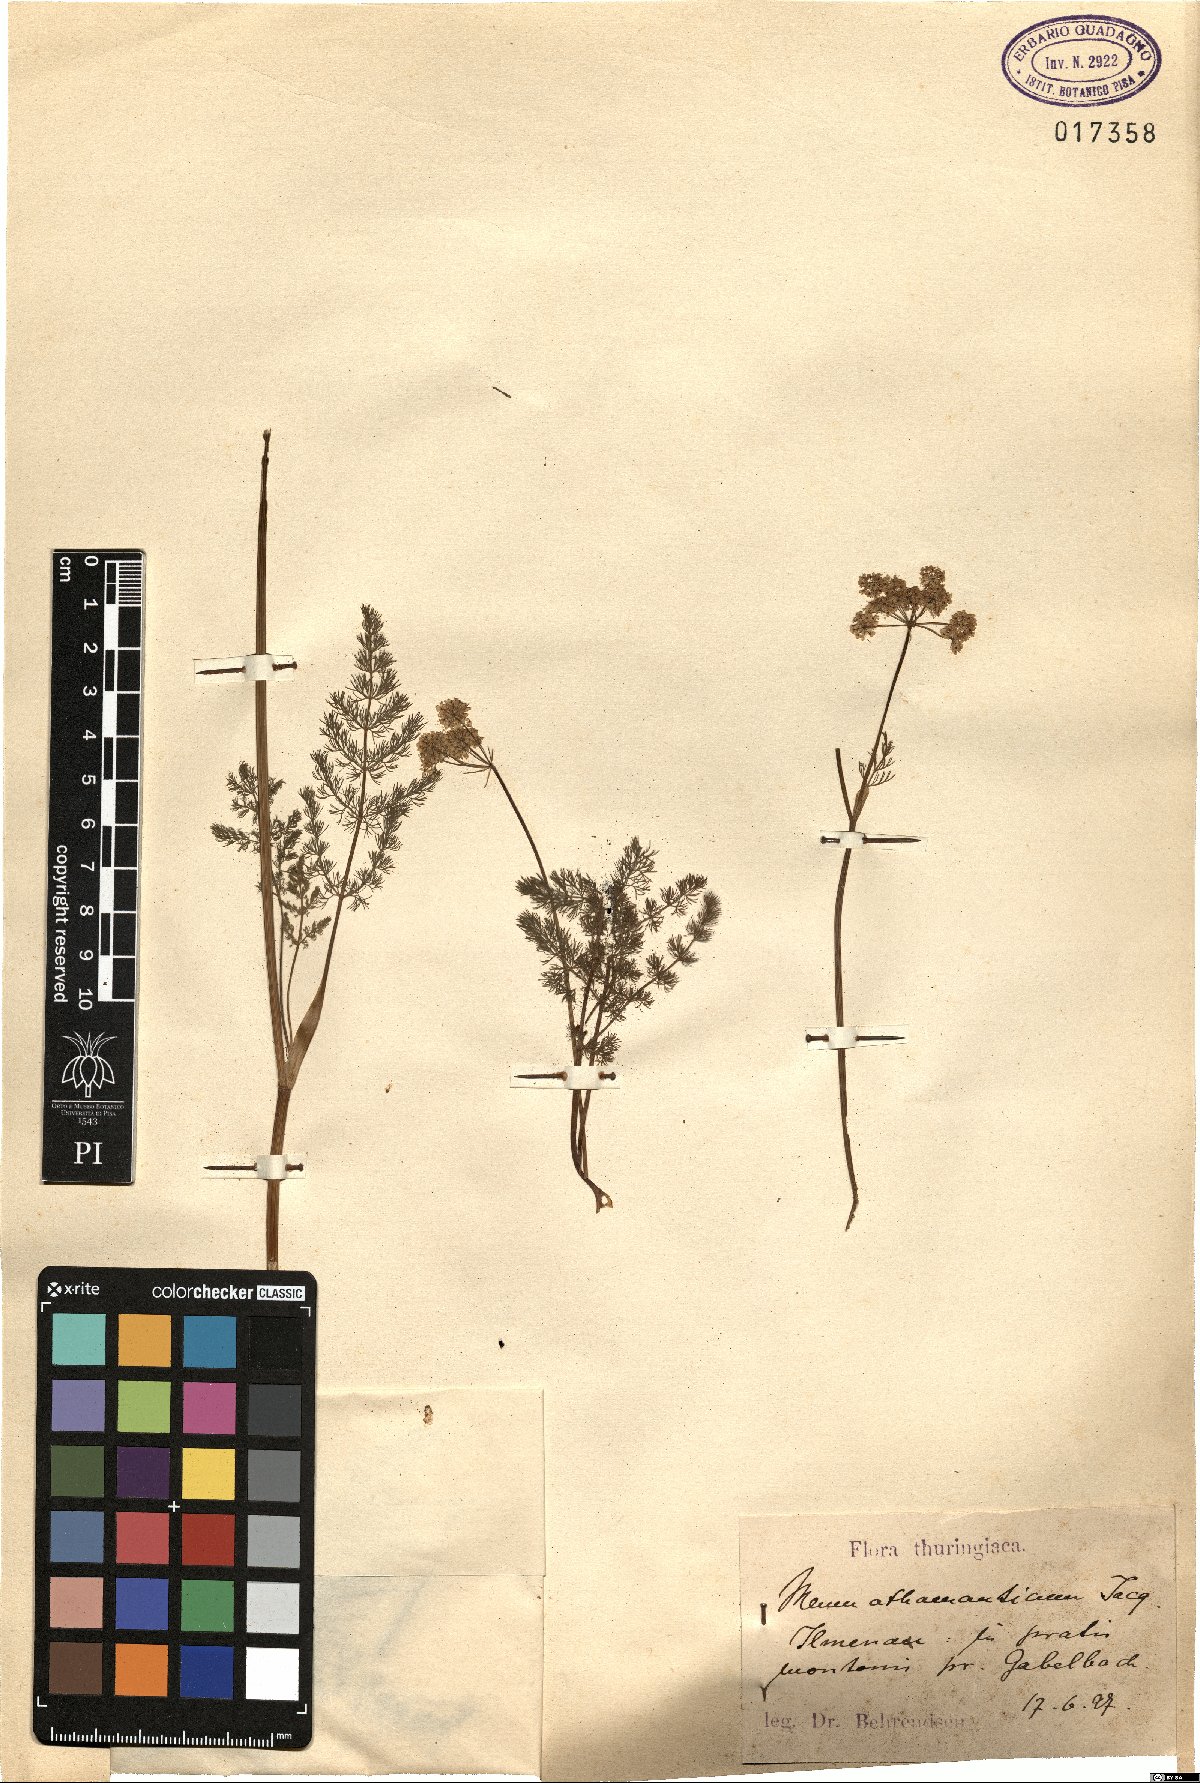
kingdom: Plantae
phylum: Tracheophyta
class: Magnoliopsida
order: Apiales
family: Apiaceae
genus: Meum
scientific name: Meum athamanticum
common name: Spignel
